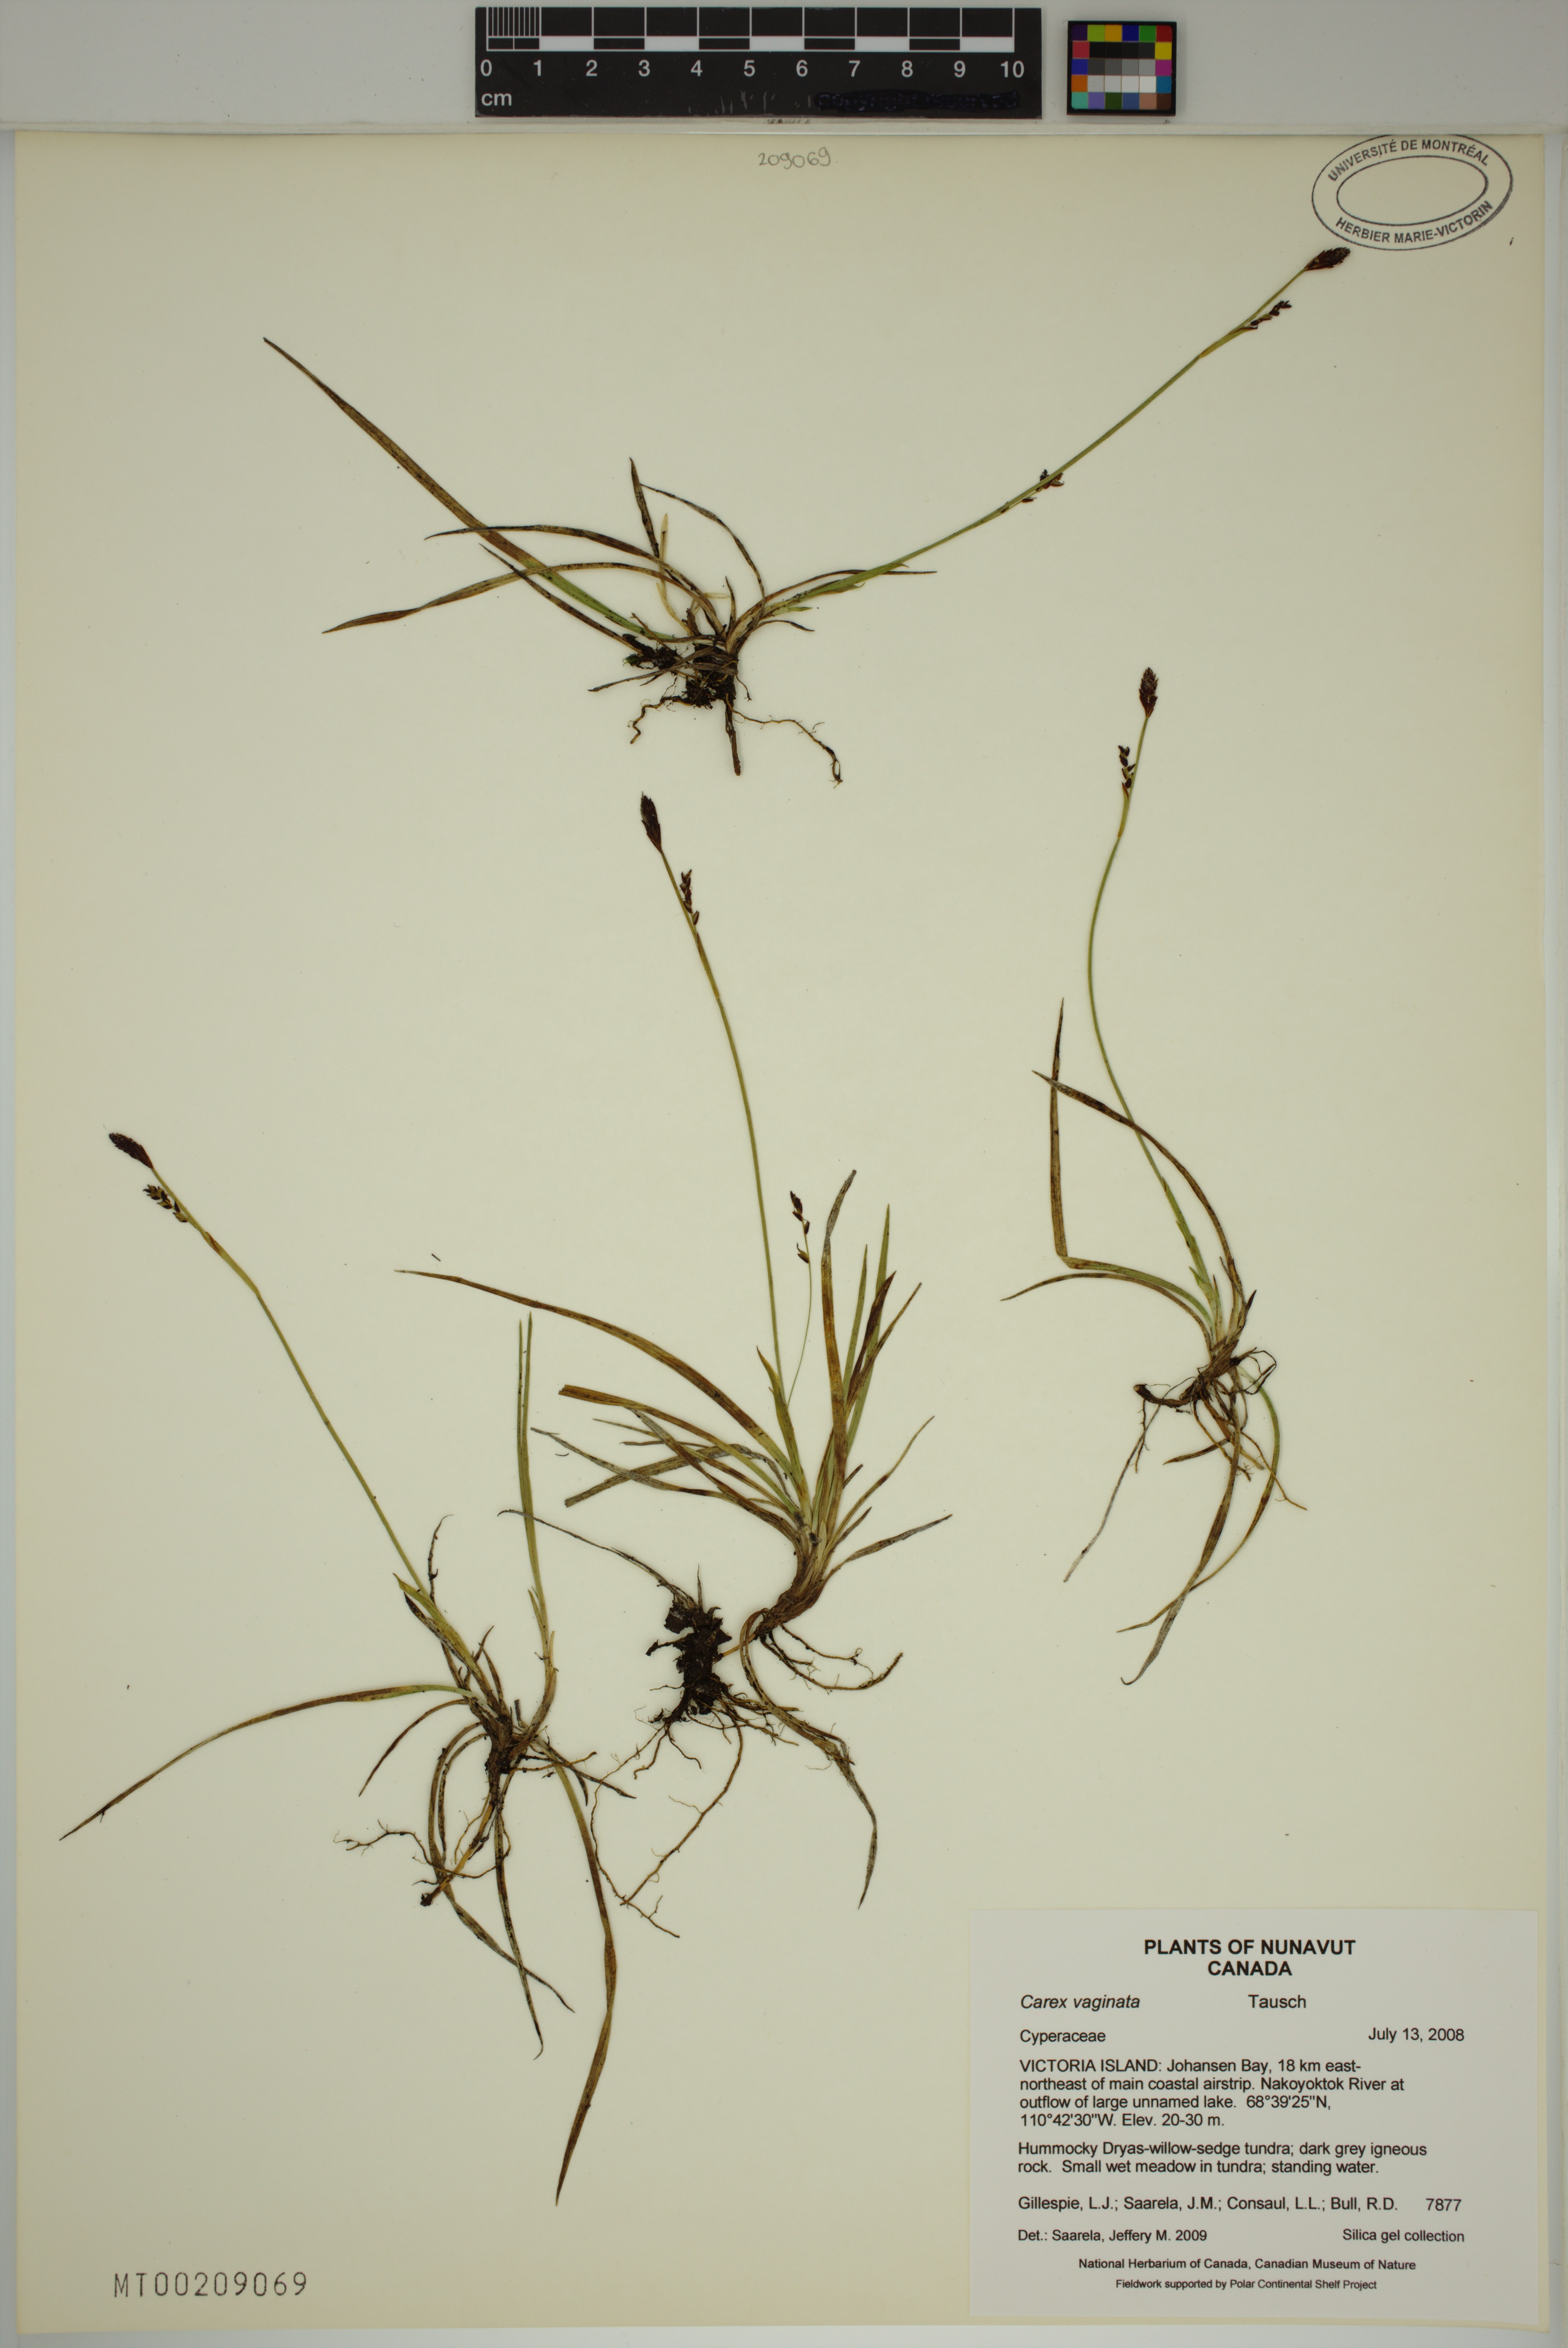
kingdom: Plantae
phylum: Tracheophyta
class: Liliopsida
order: Poales
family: Cyperaceae
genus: Carex
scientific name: Carex vaginata
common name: Sheathed sedge
